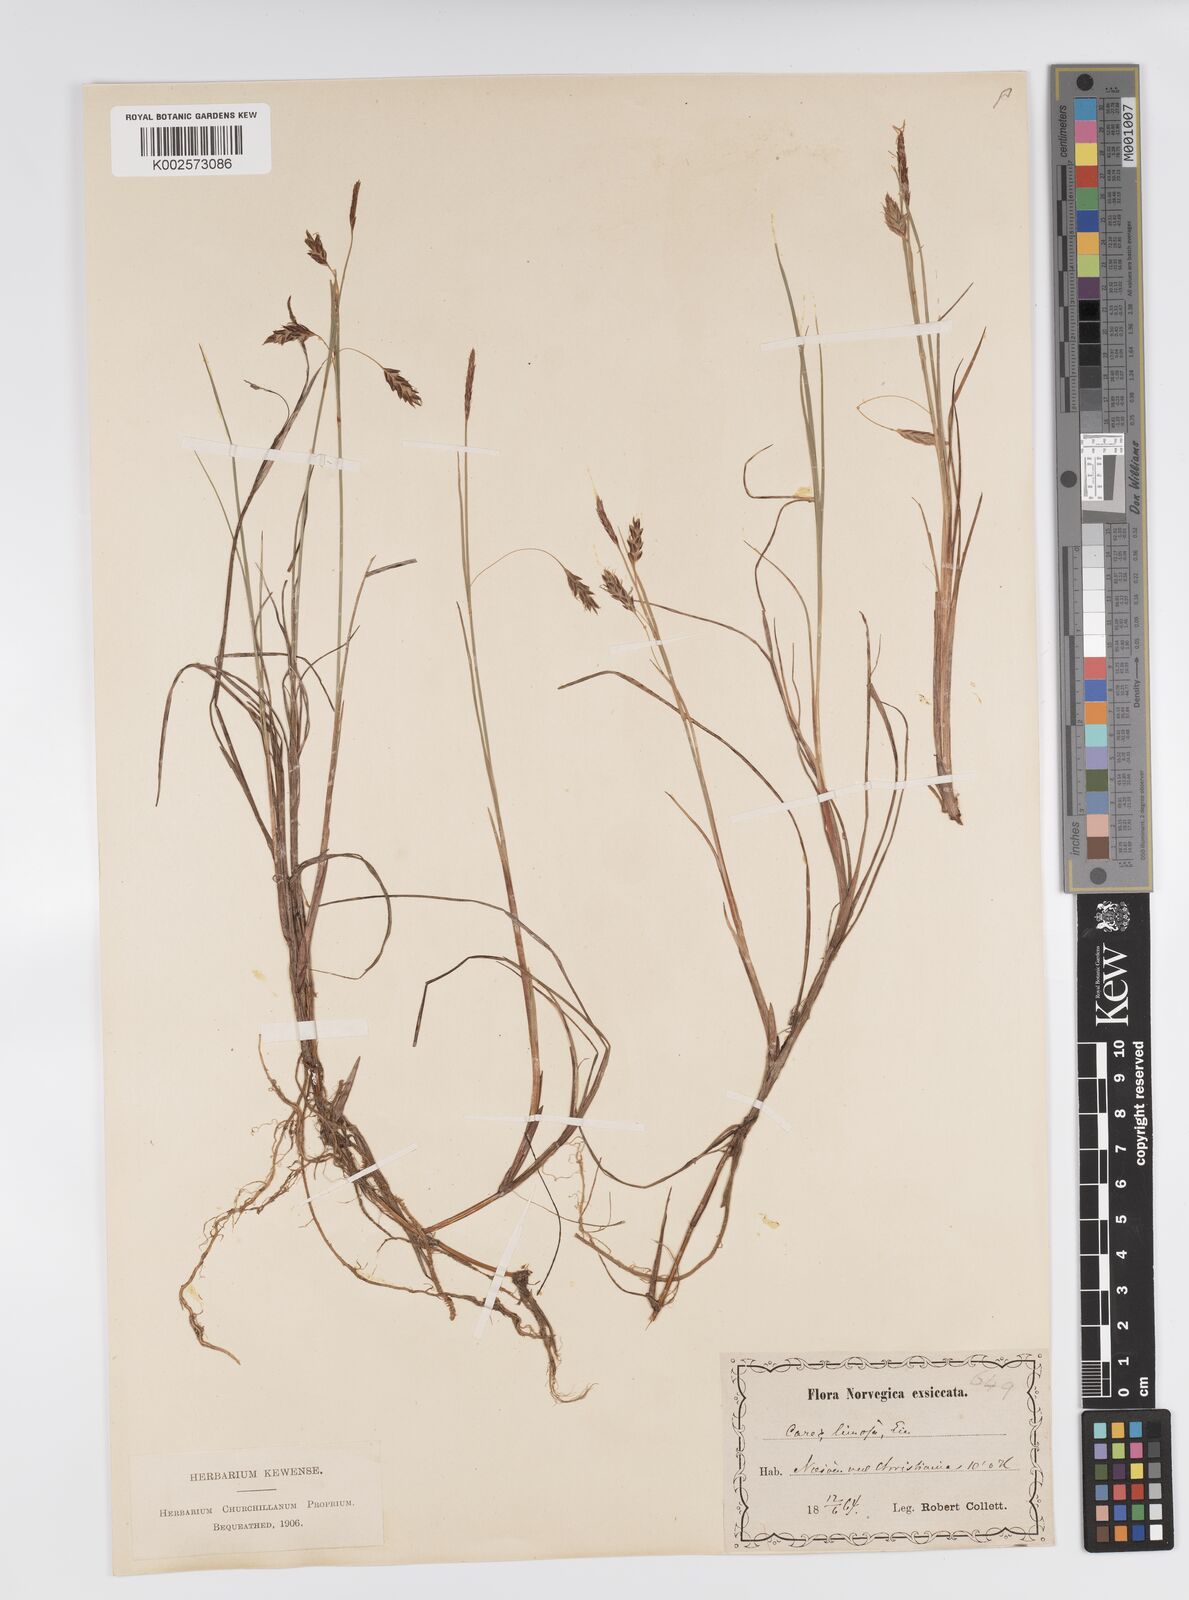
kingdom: Plantae
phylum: Tracheophyta
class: Liliopsida
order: Poales
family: Cyperaceae
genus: Carex
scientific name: Carex limosa
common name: Bog sedge
